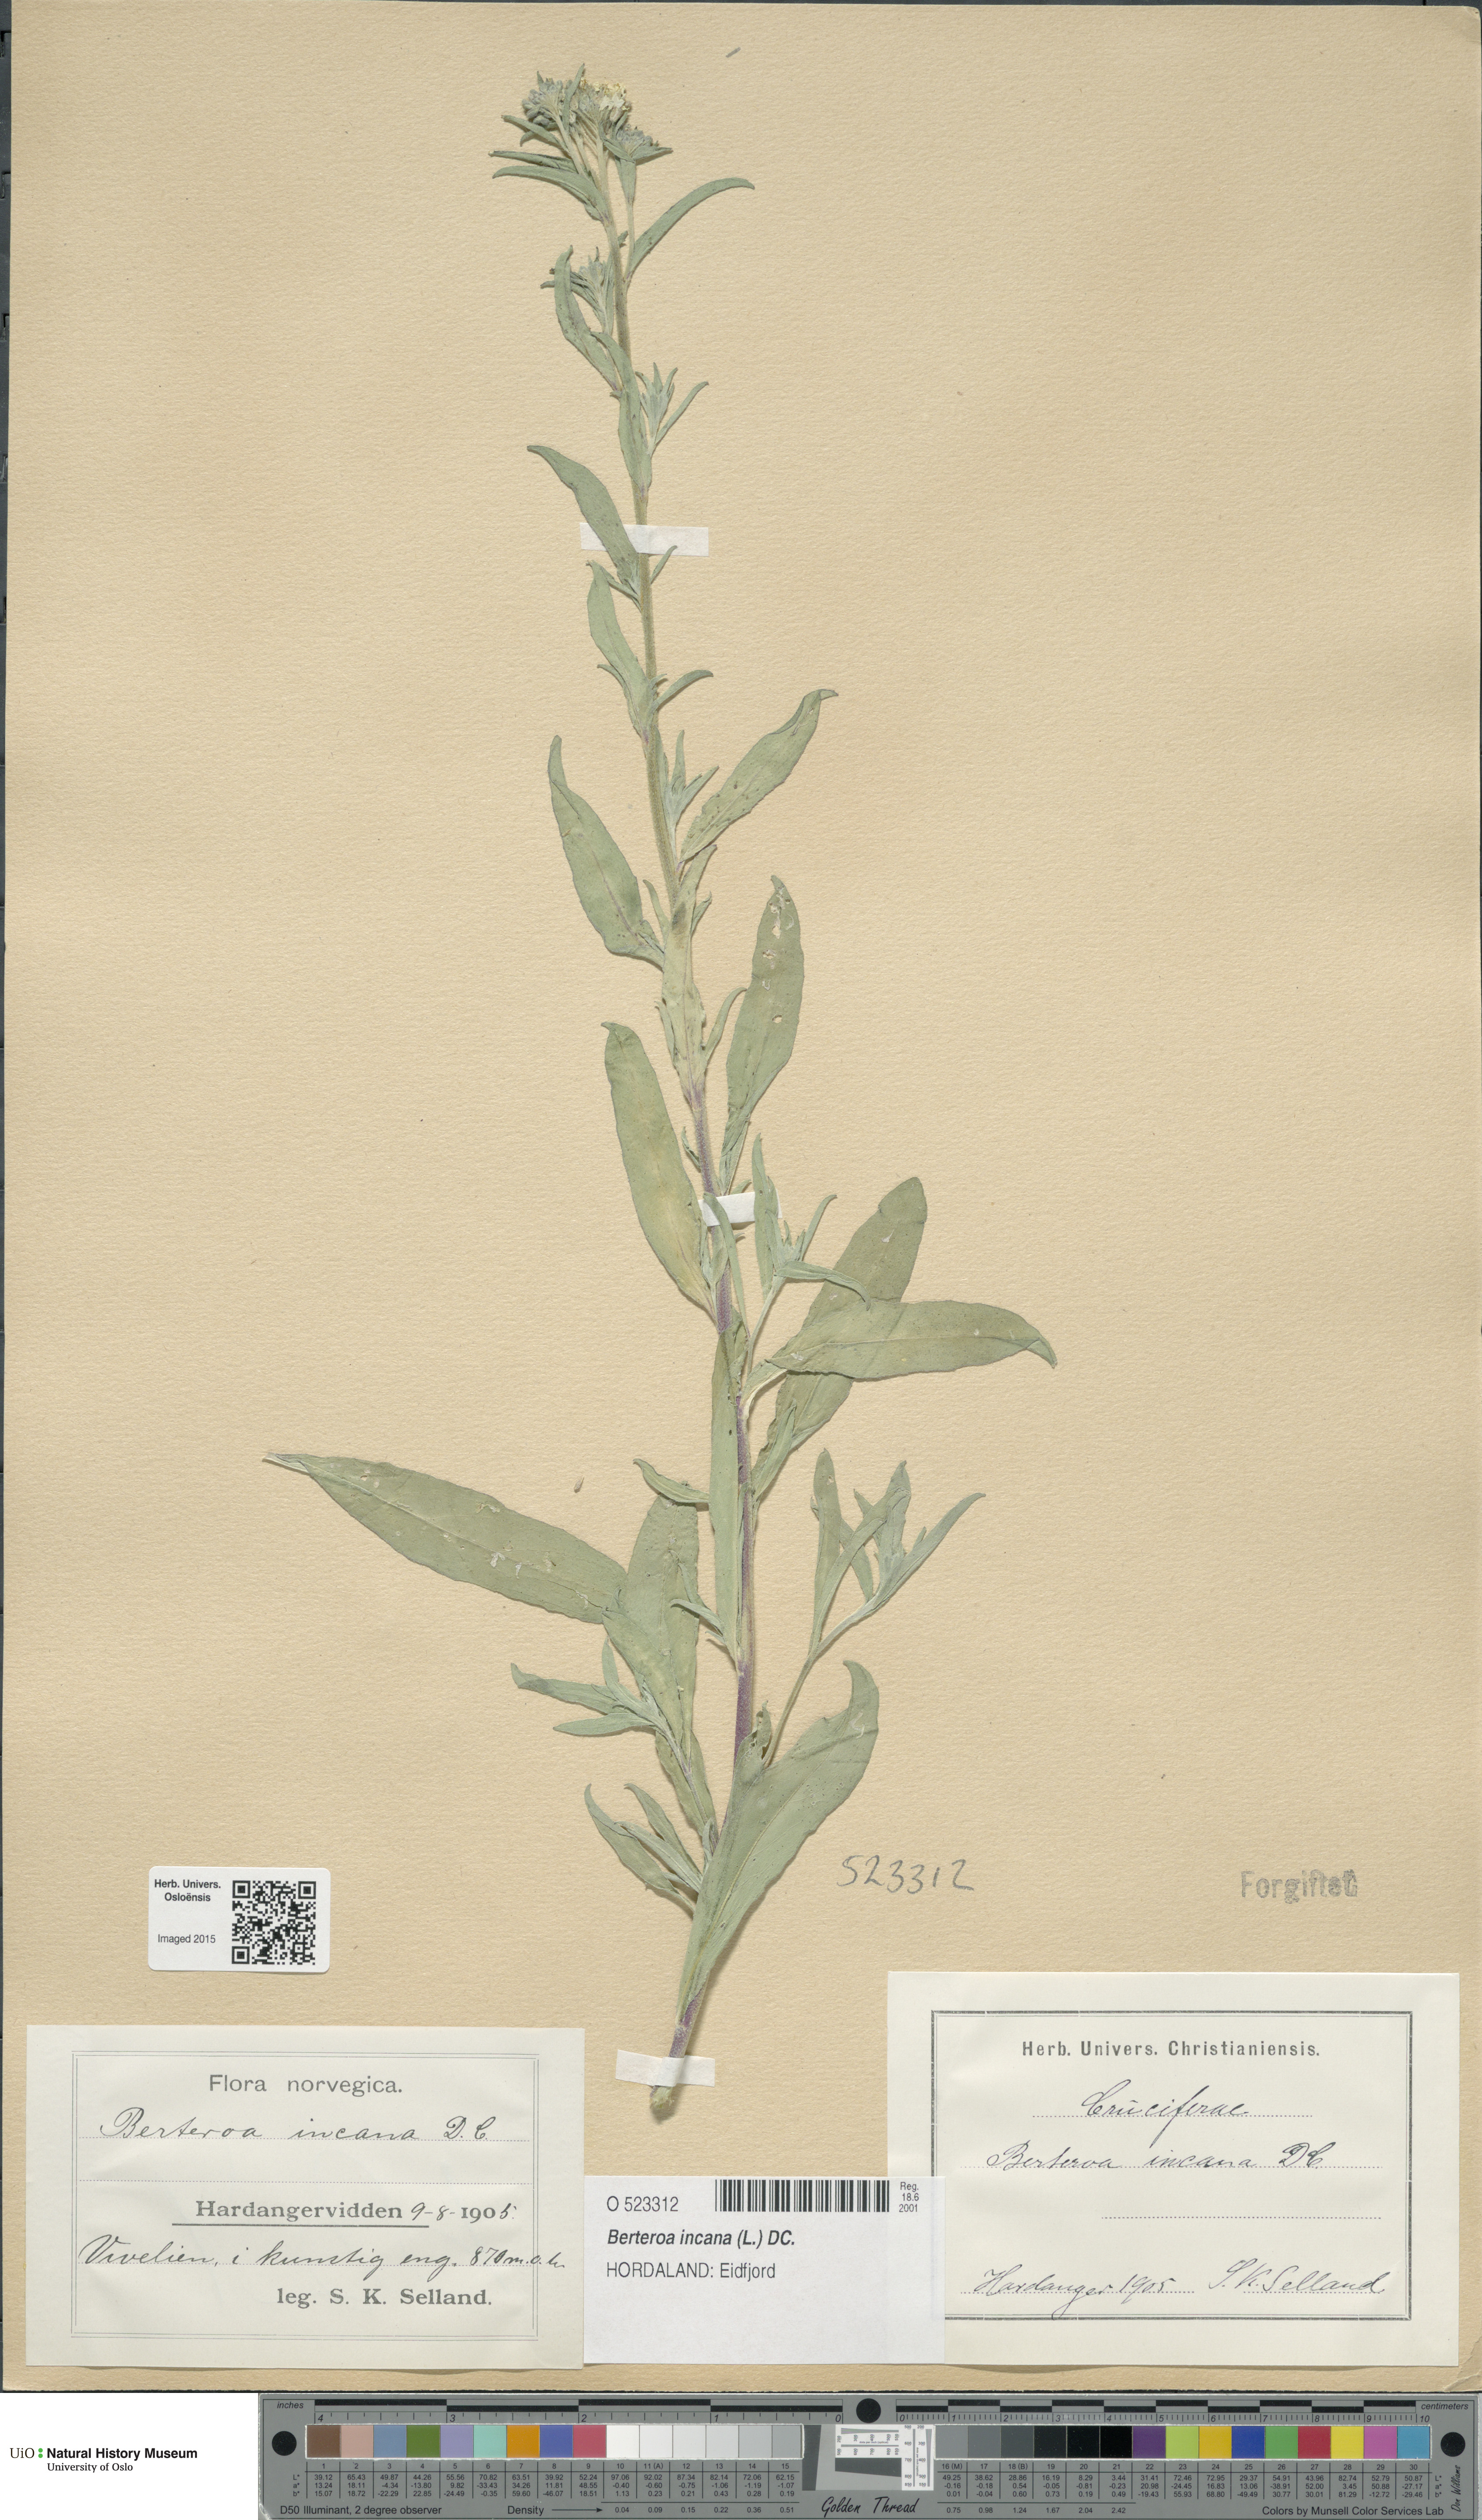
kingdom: Plantae
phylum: Tracheophyta
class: Magnoliopsida
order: Brassicales
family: Brassicaceae
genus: Berteroa
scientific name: Berteroa incana
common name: Hoary alison
